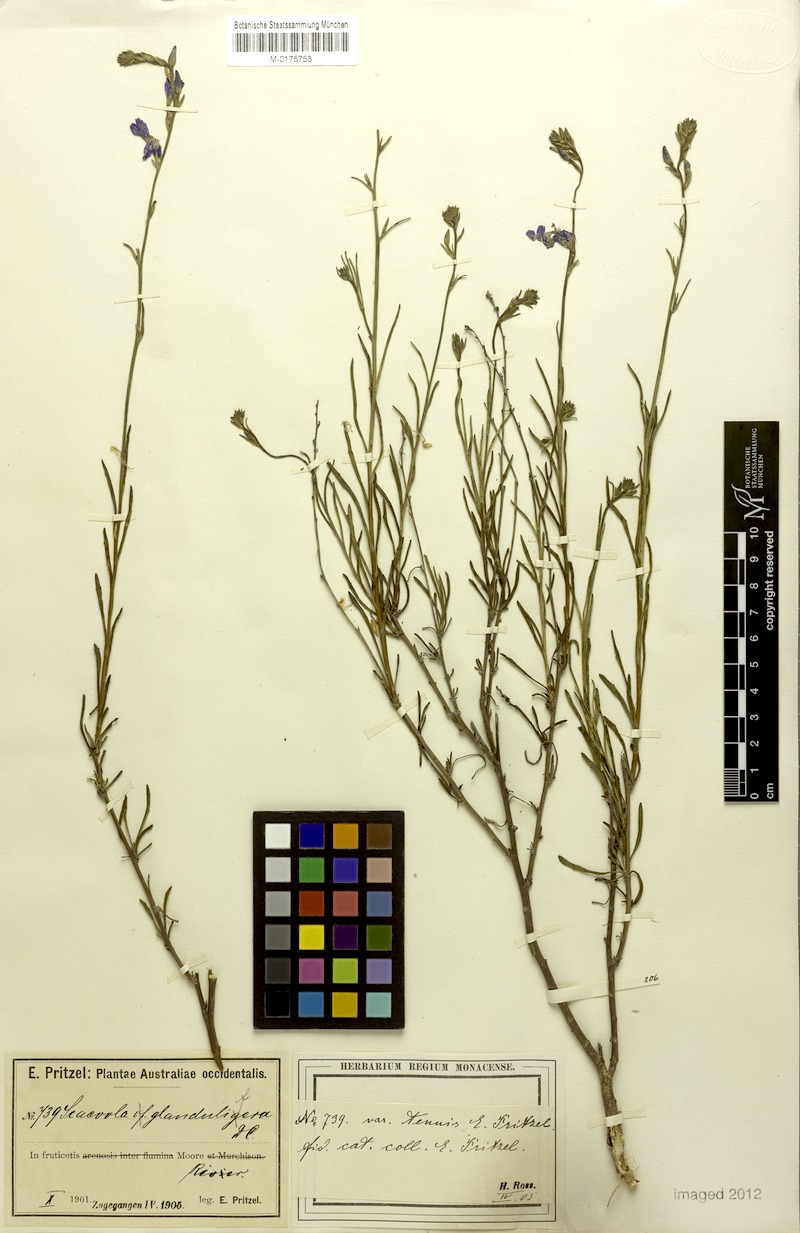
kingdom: Plantae
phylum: Tracheophyta
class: Magnoliopsida
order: Asterales
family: Goodeniaceae
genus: Scaevola
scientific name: Scaevola glandulifera
